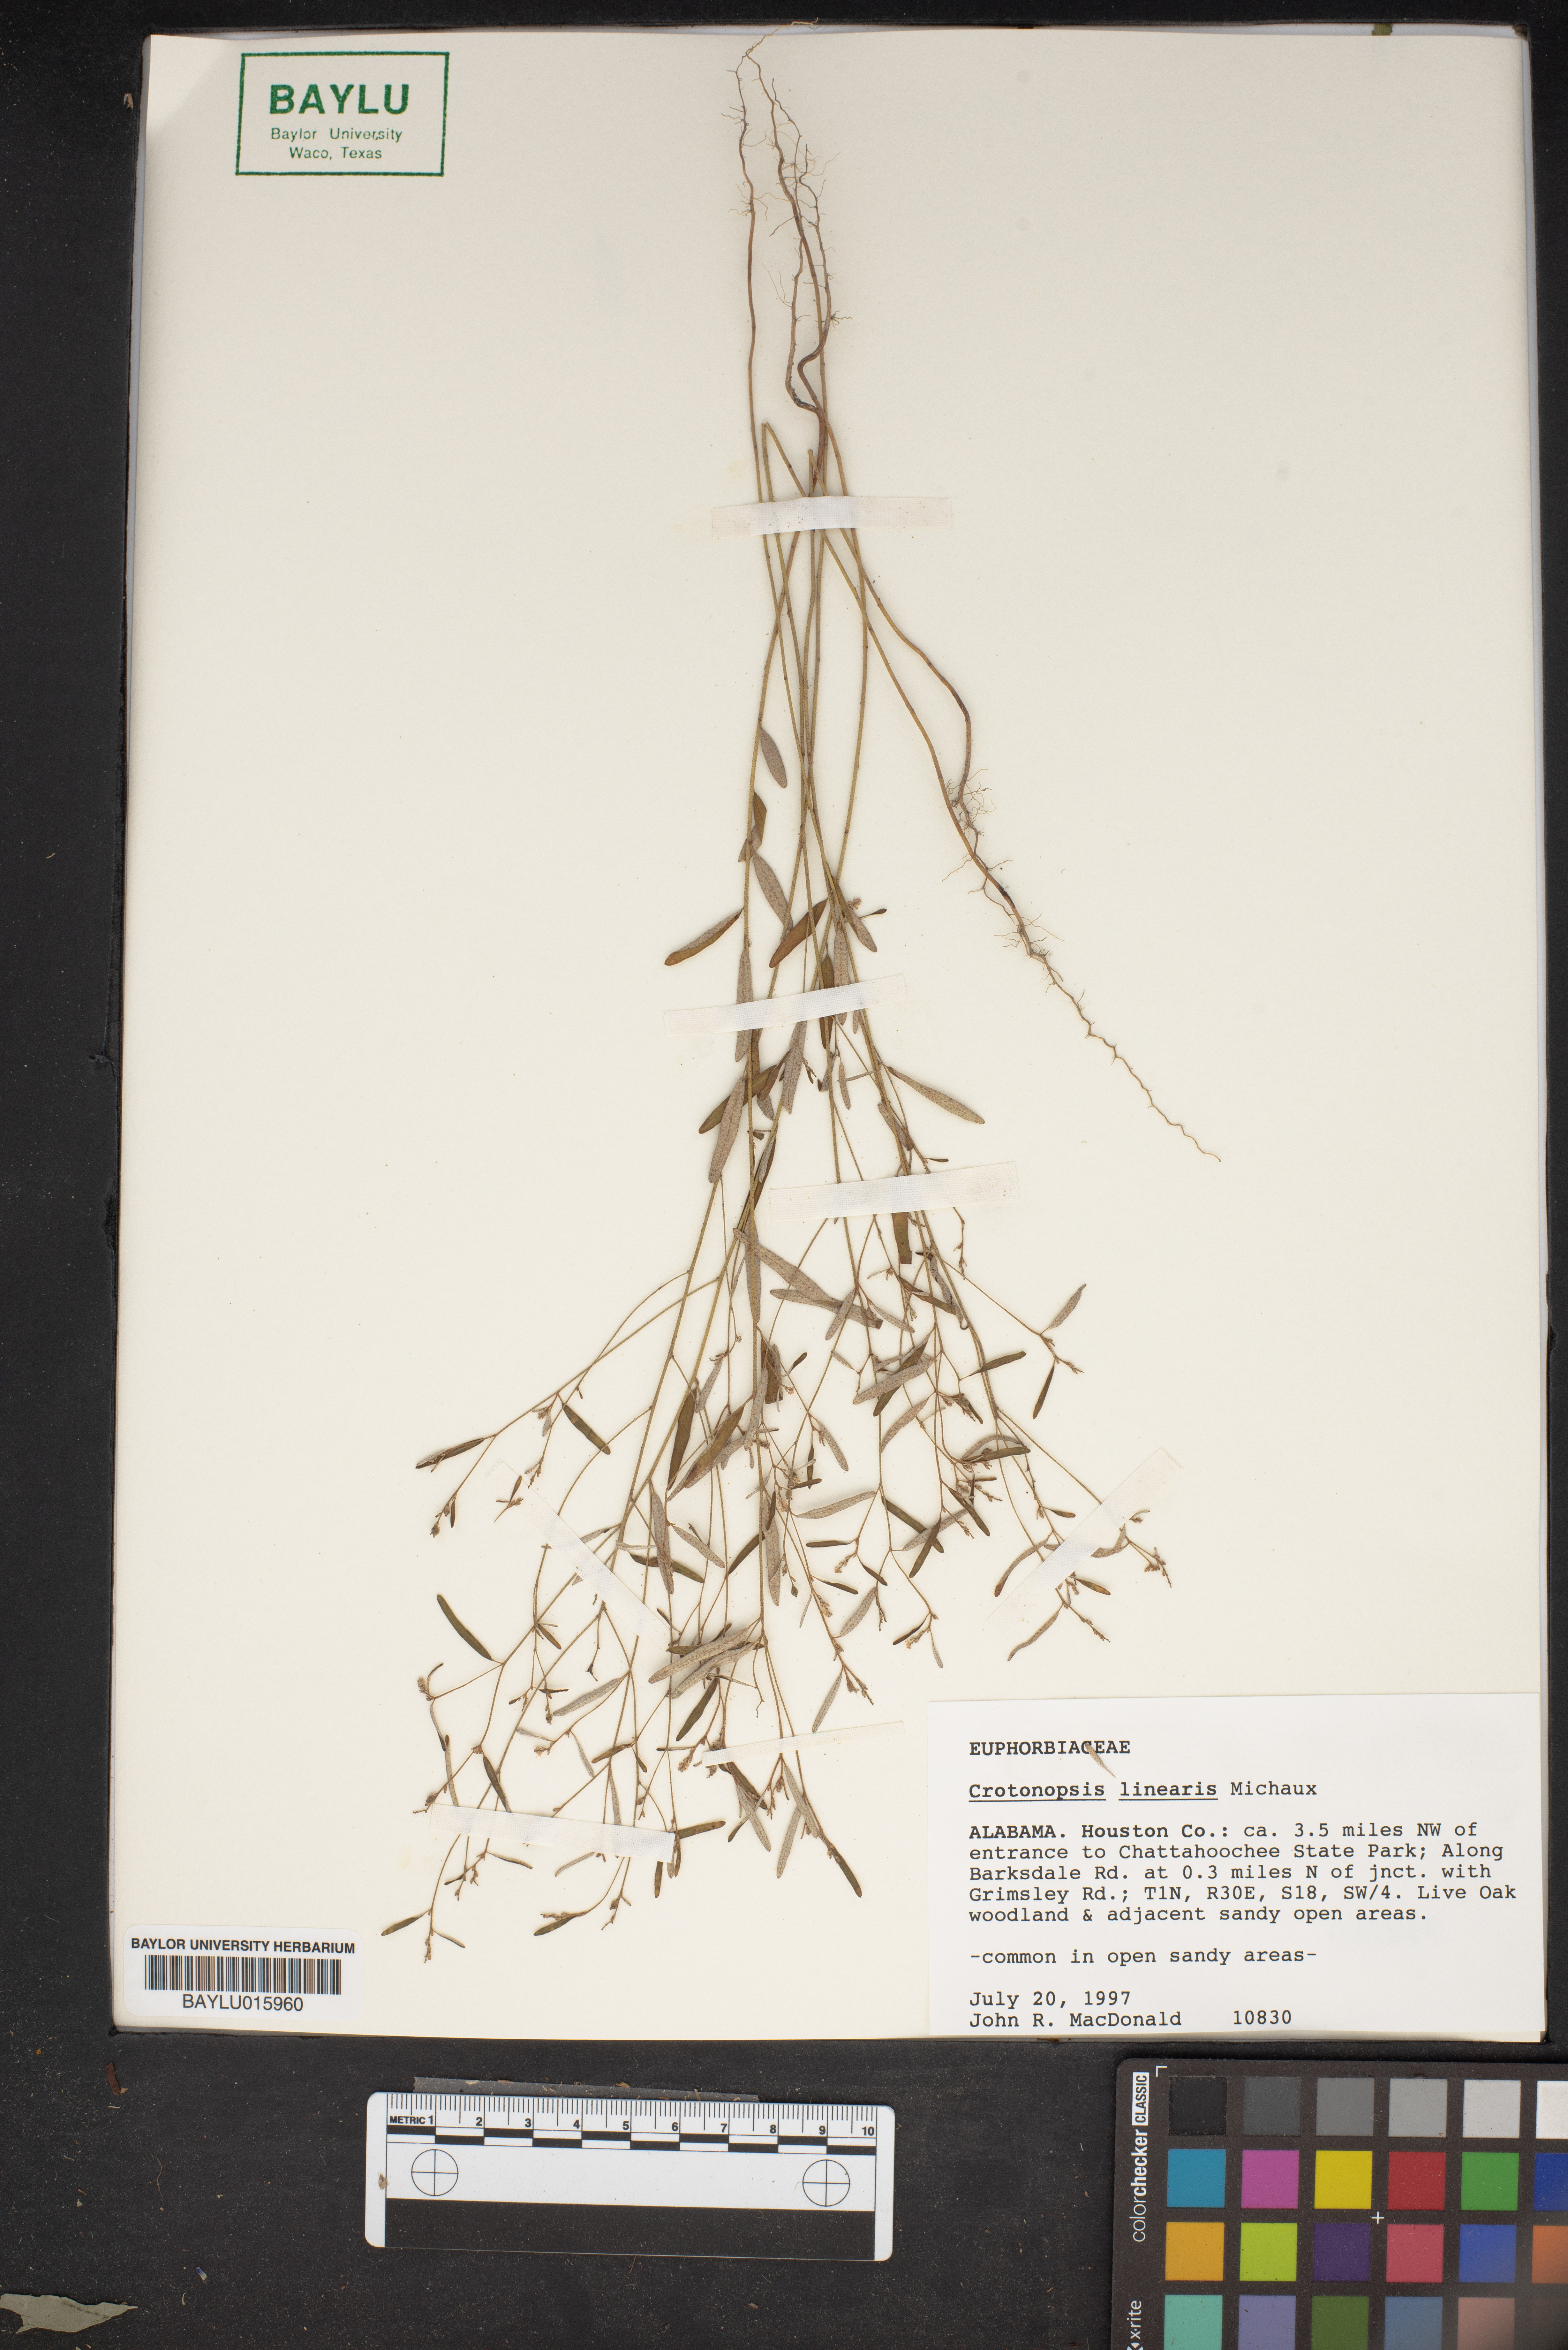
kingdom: Plantae
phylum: Tracheophyta
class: Magnoliopsida
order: Malpighiales
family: Euphorbiaceae
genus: Croton
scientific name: Croton michauxii
